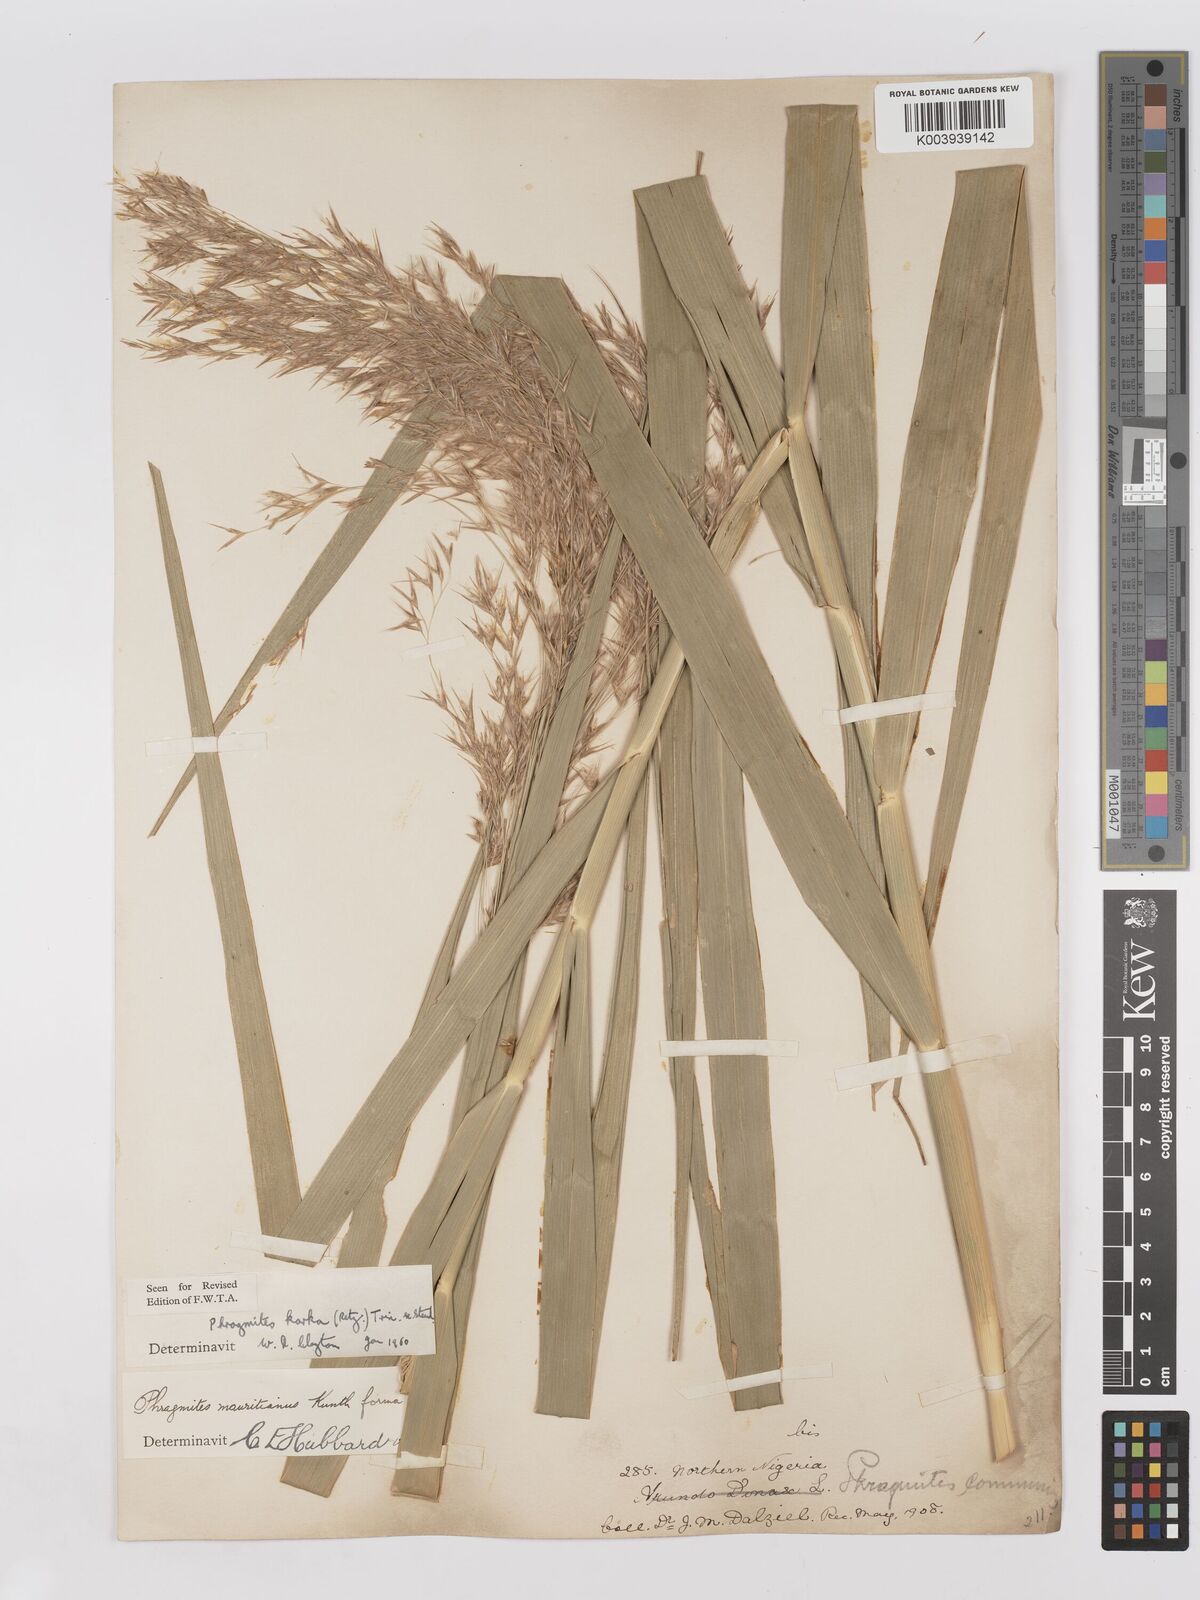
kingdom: Plantae
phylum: Tracheophyta
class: Liliopsida
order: Poales
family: Poaceae
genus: Phragmites
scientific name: Phragmites karka
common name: Tropical reed
